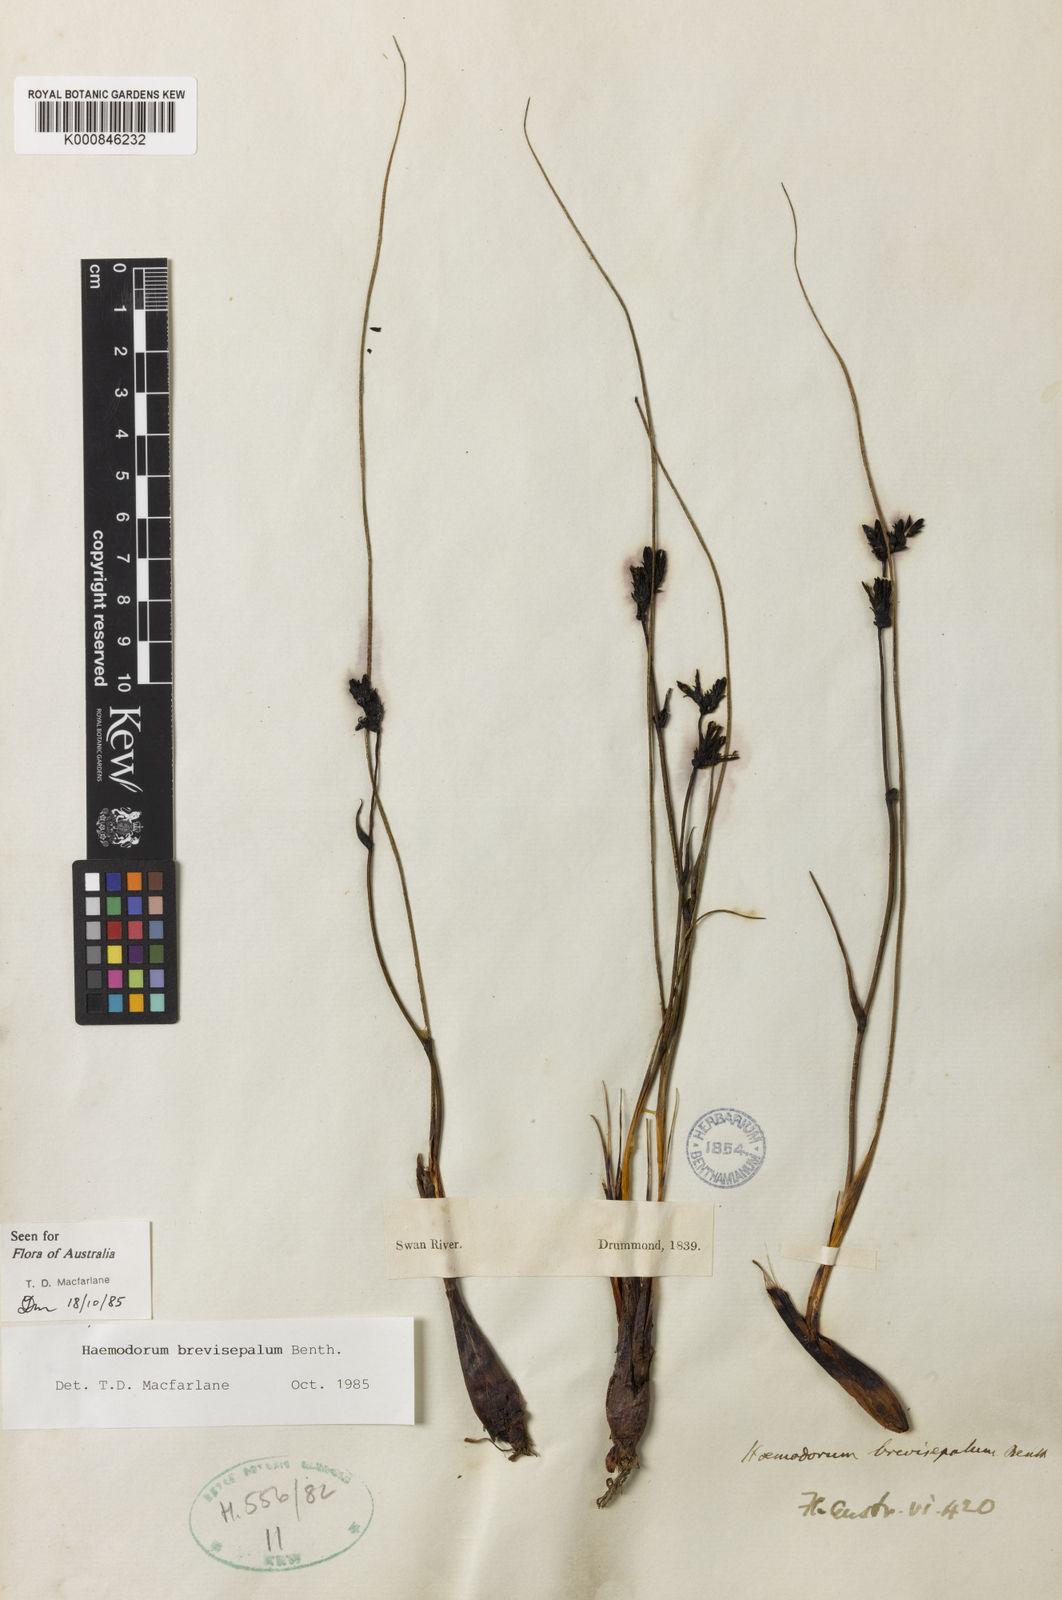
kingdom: Plantae
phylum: Tracheophyta
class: Liliopsida
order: Commelinales
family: Haemodoraceae
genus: Haemodorum
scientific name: Haemodorum brevisepalum
